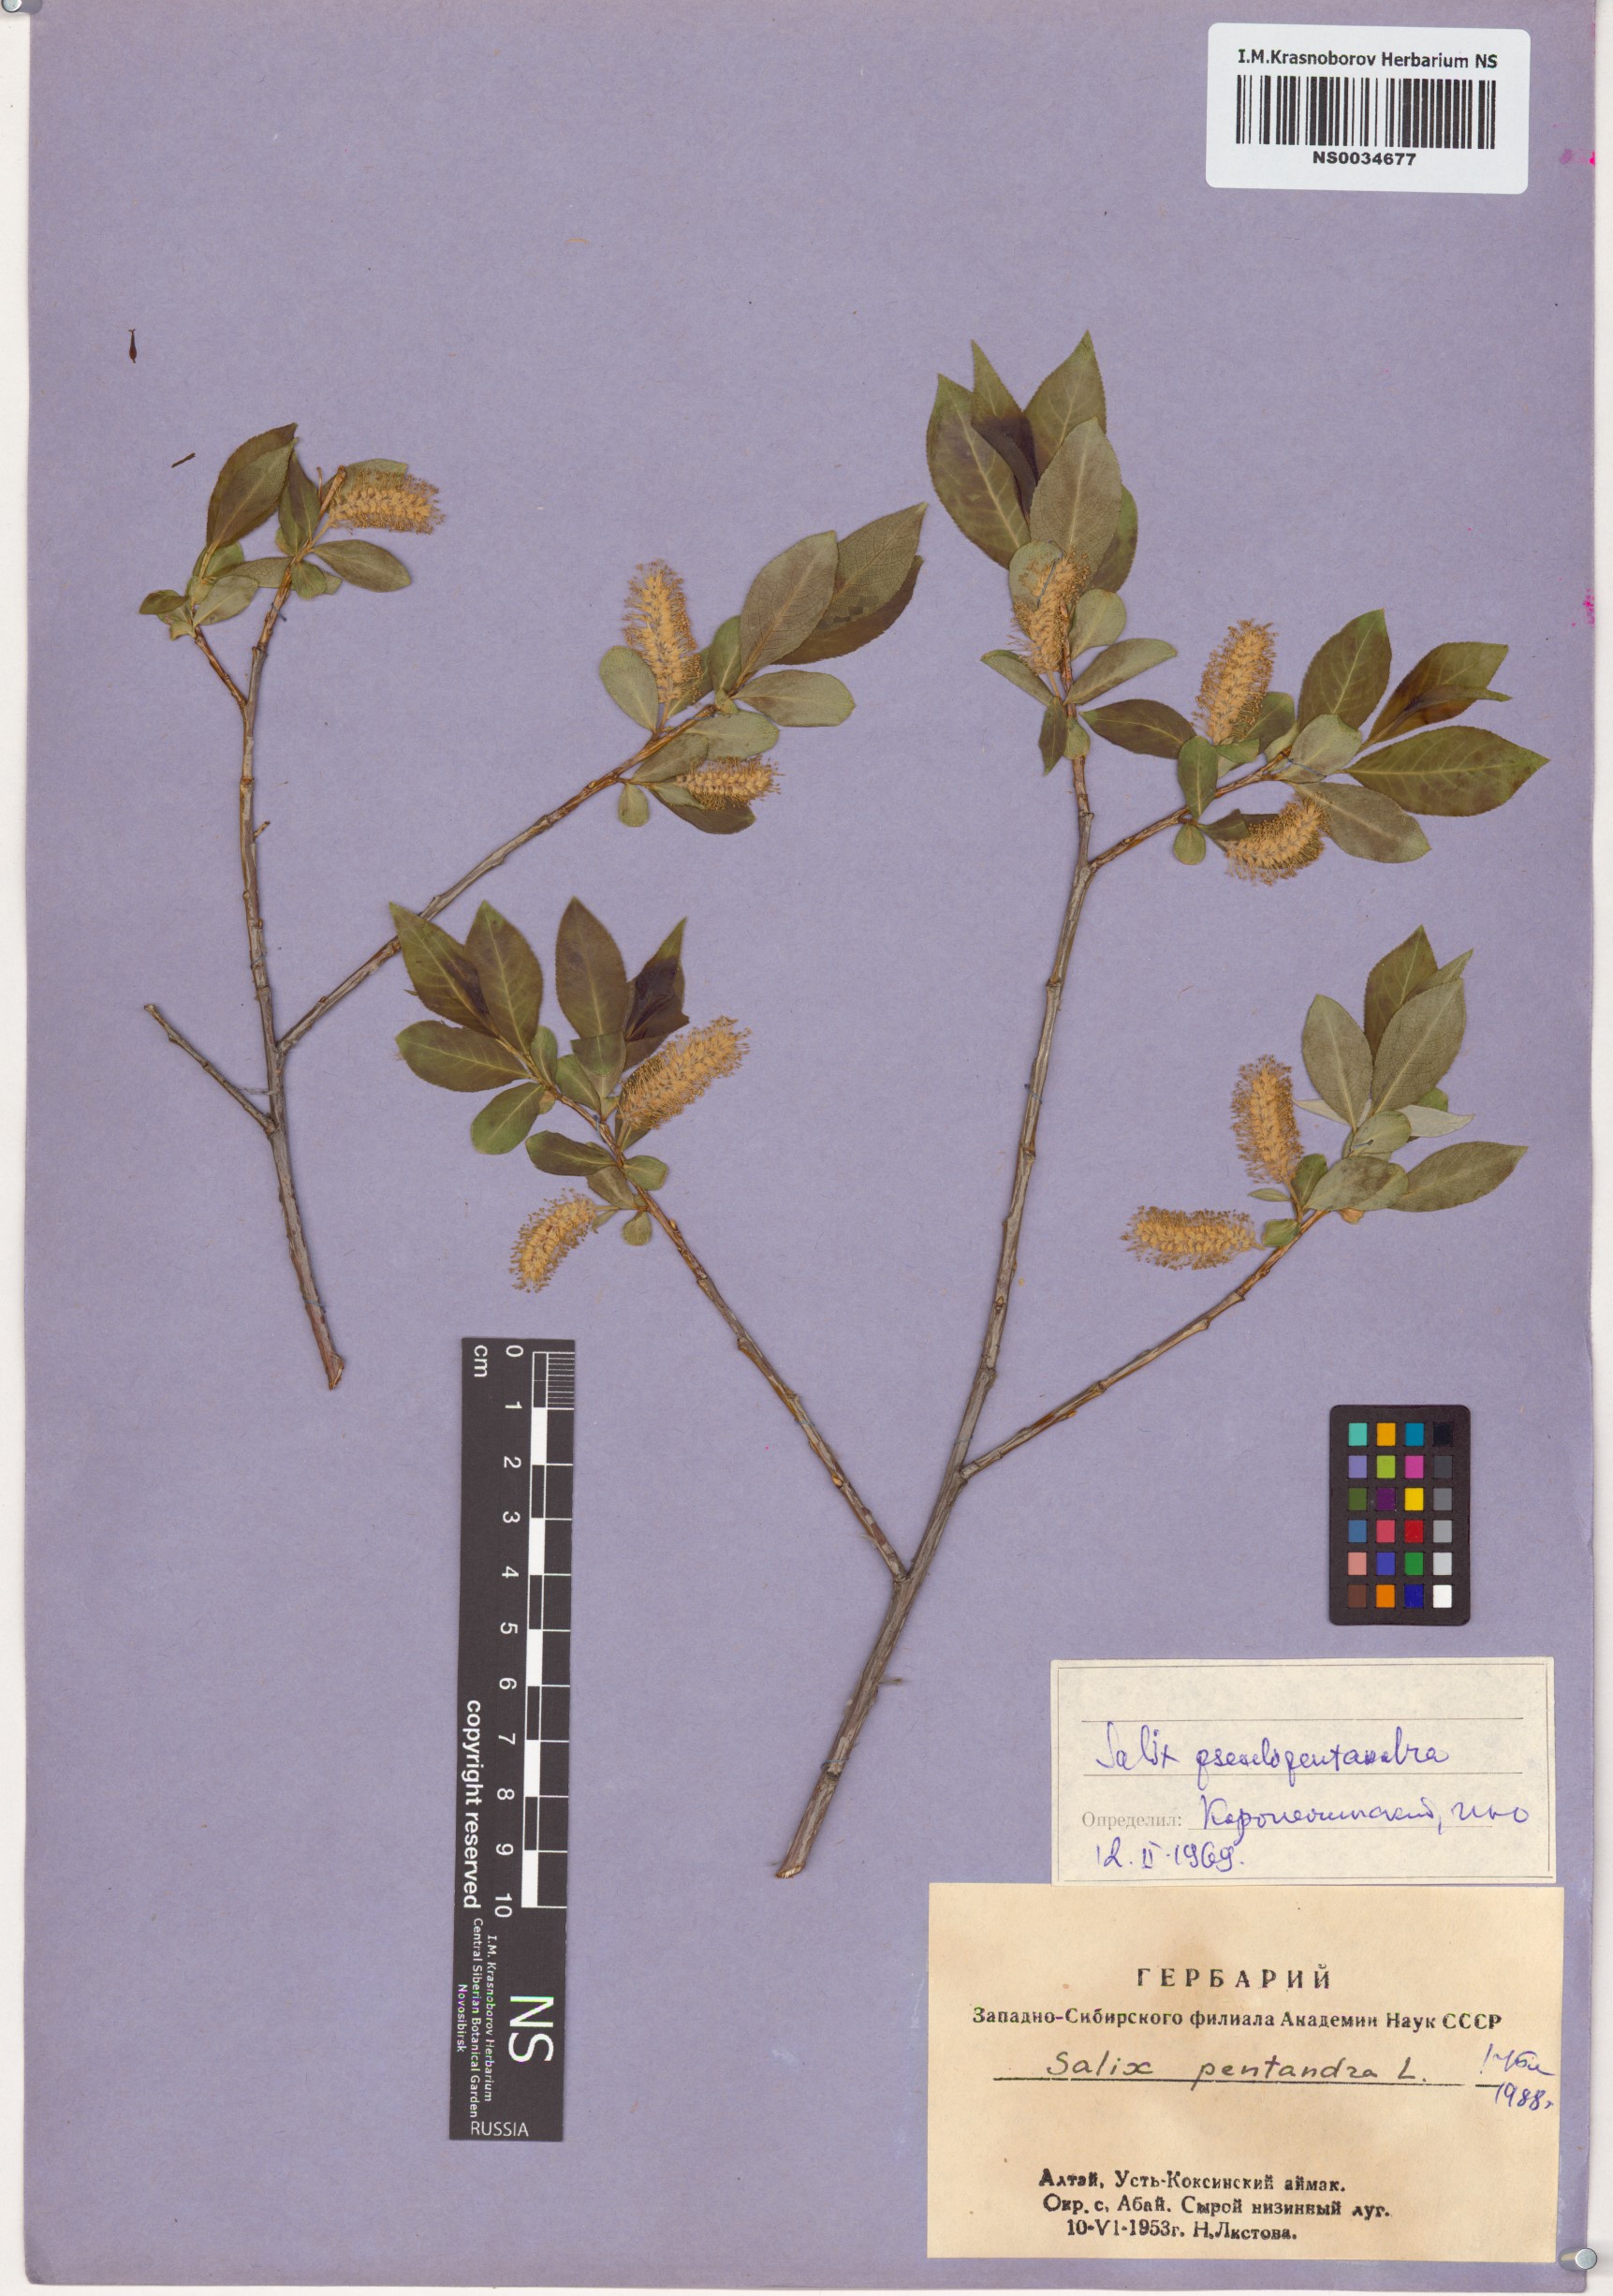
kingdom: Plantae
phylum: Tracheophyta
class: Magnoliopsida
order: Malpighiales
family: Salicaceae
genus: Salix
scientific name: Salix pseudopentandra
